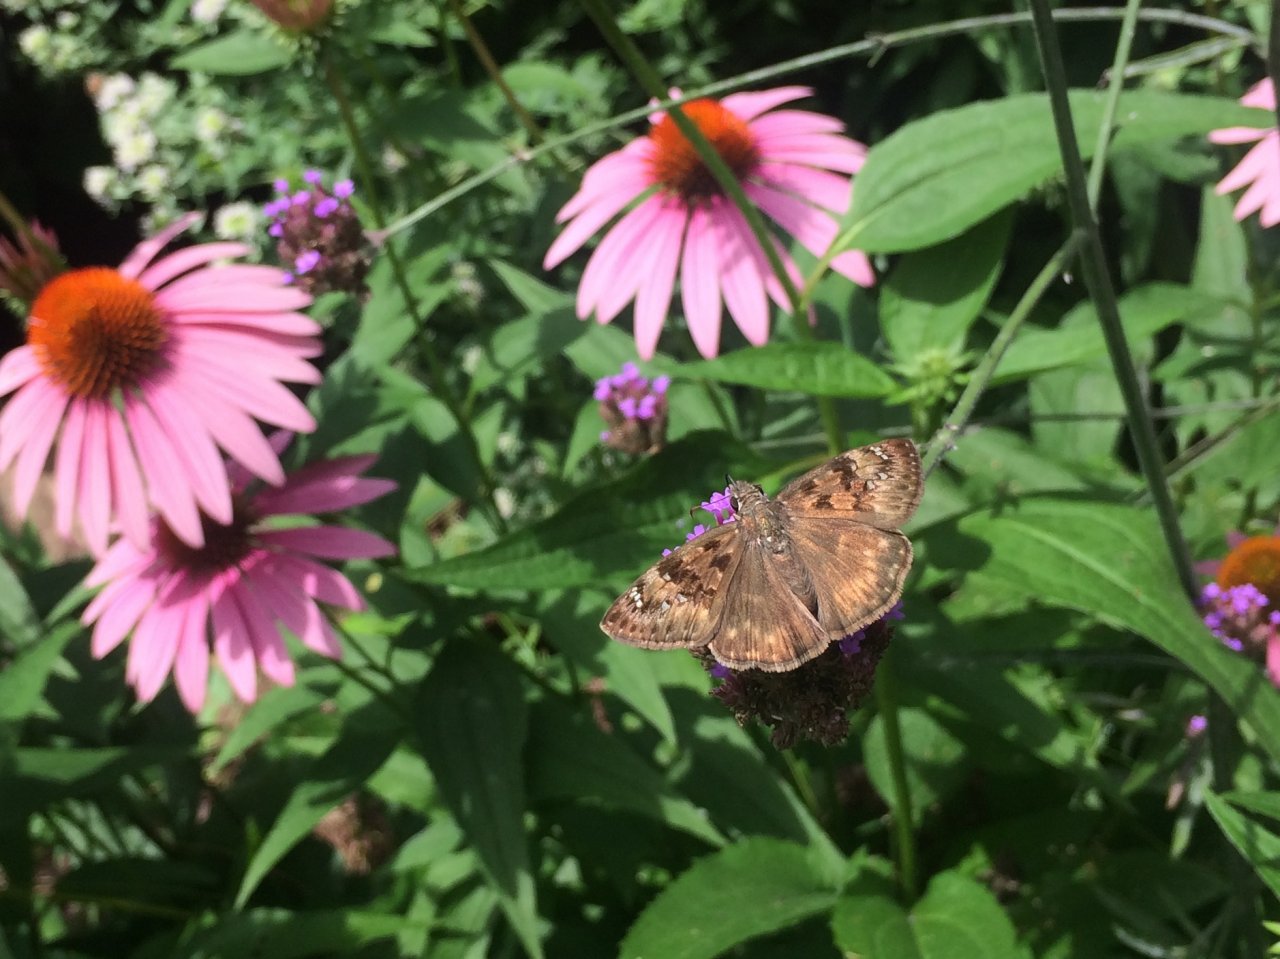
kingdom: Animalia
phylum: Arthropoda
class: Insecta
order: Lepidoptera
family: Hesperiidae
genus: Gesta
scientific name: Gesta
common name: Horace's Duskywing
